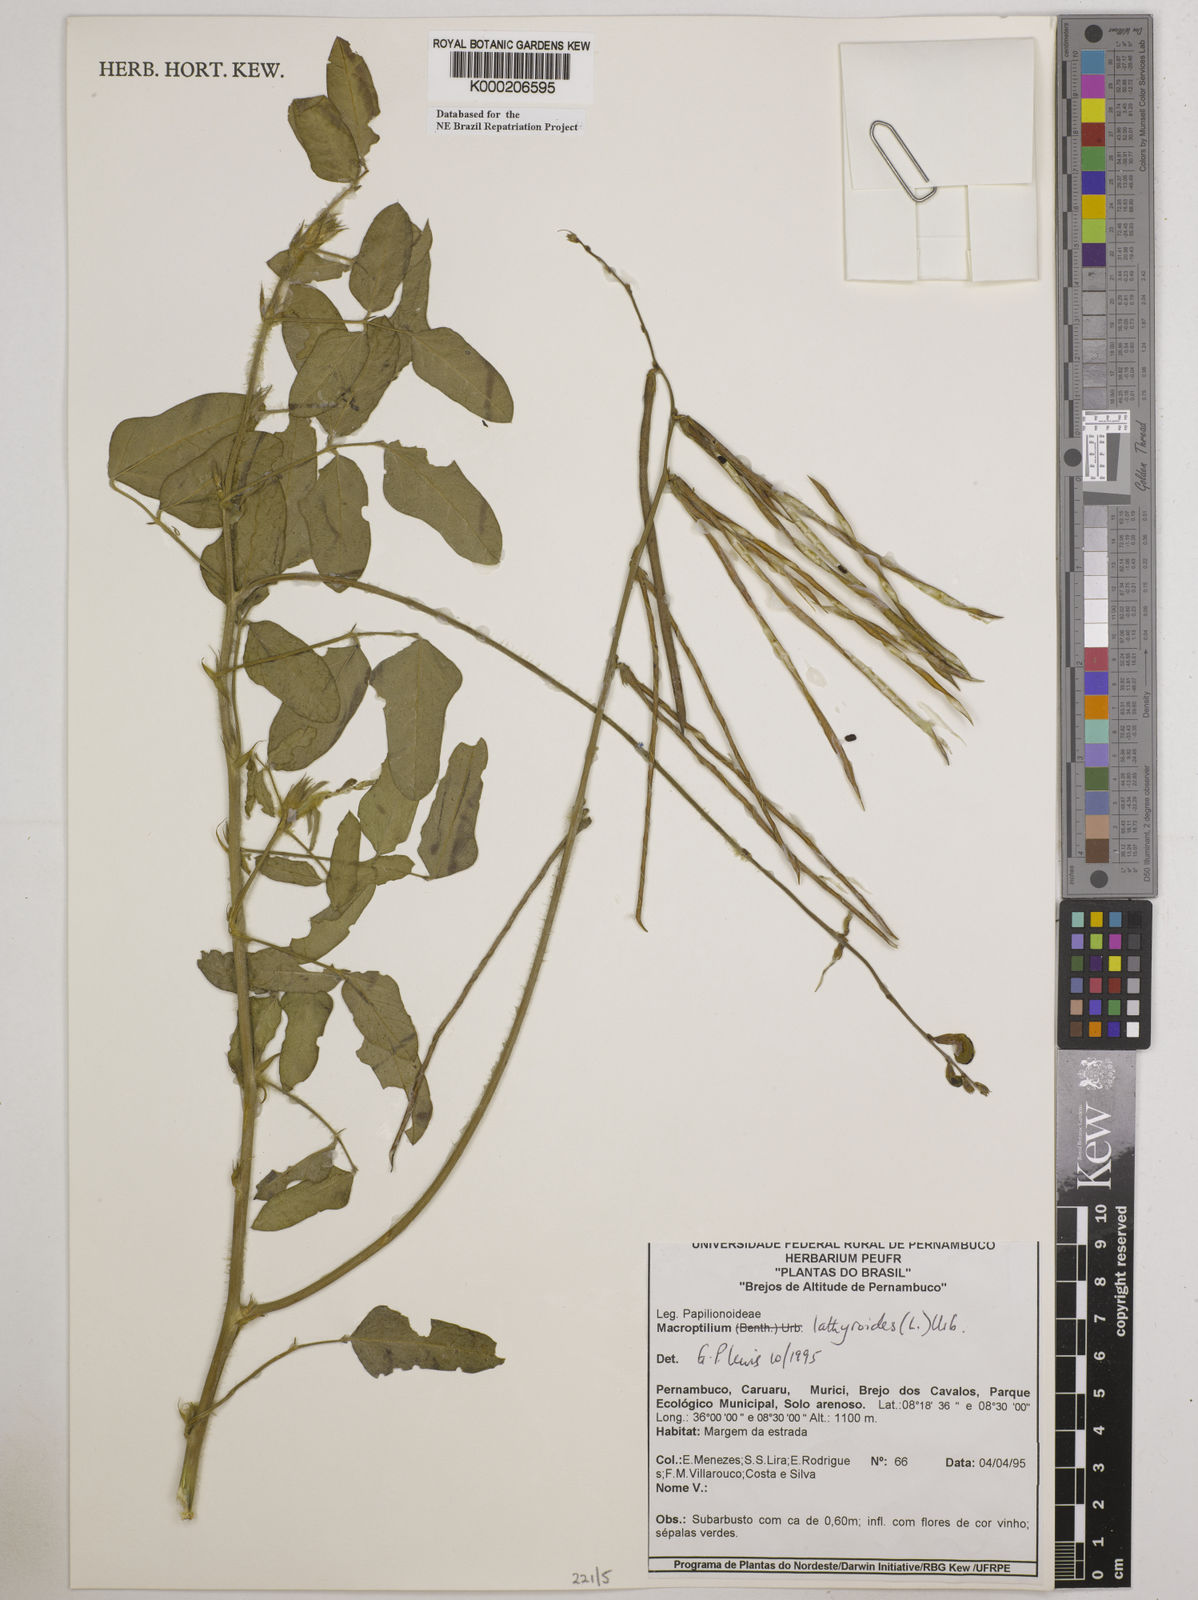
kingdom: Plantae
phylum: Tracheophyta
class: Magnoliopsida
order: Fabales
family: Fabaceae
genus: Macroptilium
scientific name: Macroptilium lathyroides
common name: Wild bushbean
